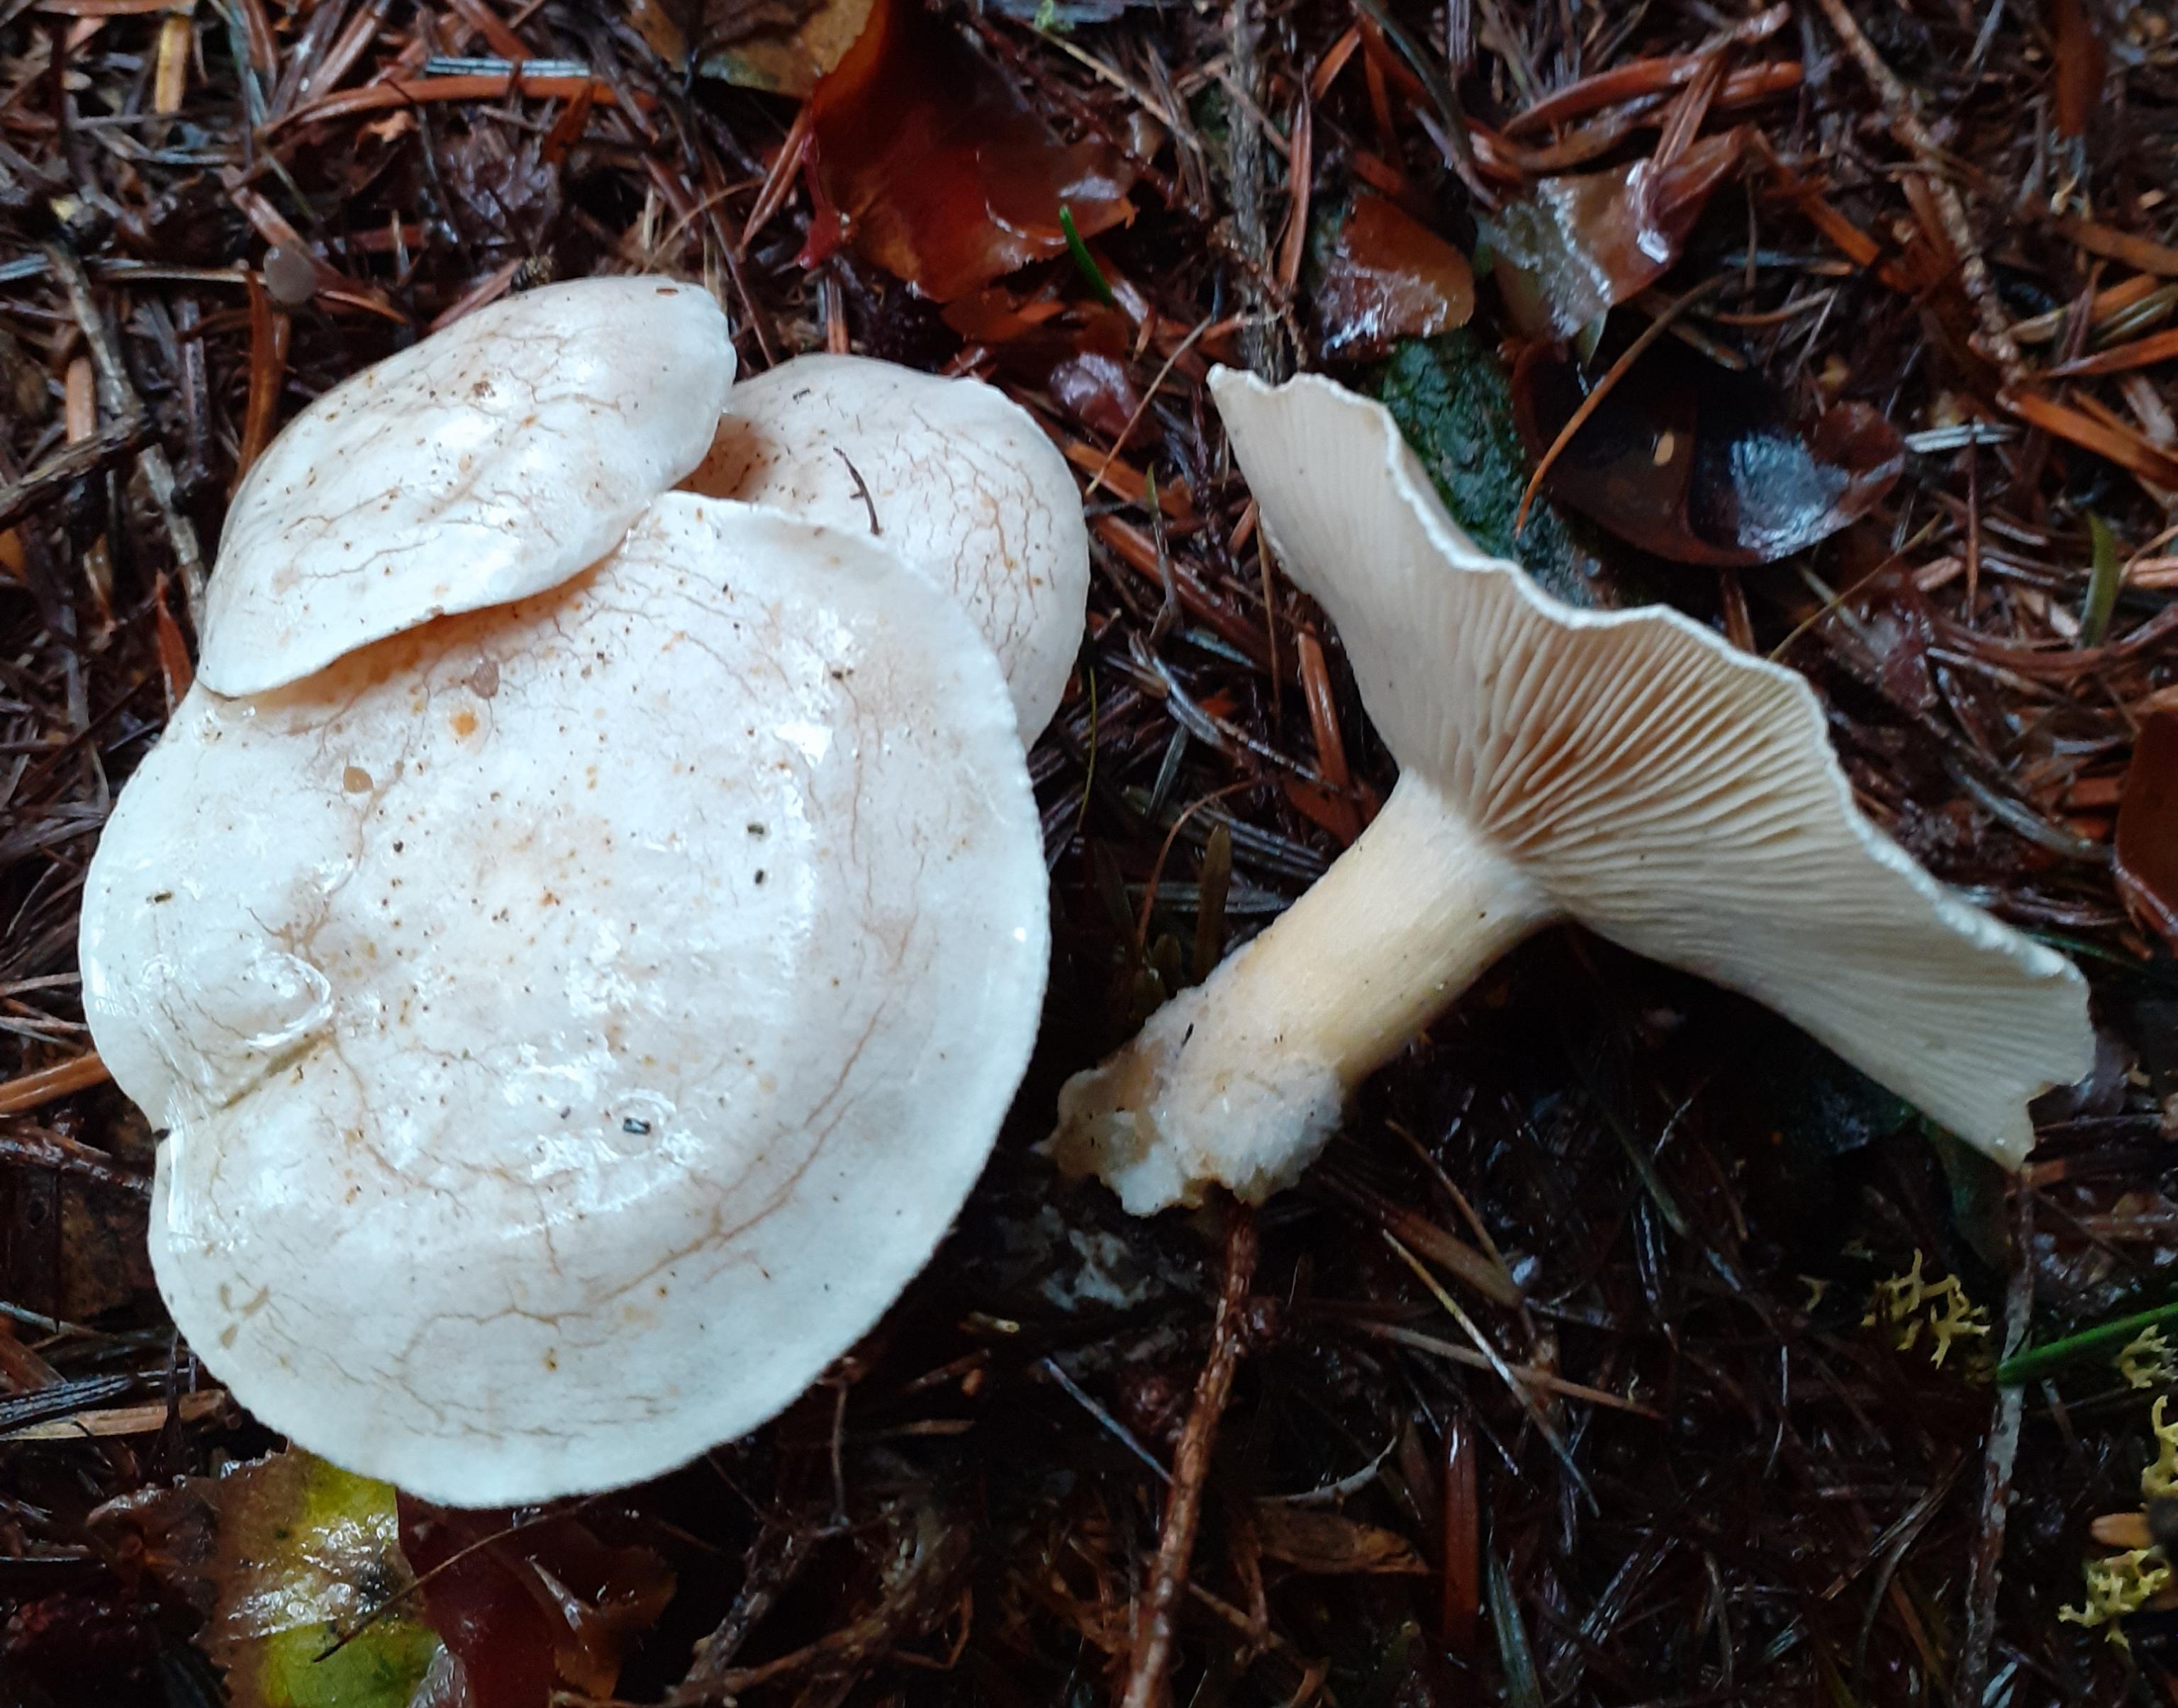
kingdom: Fungi
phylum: Basidiomycota
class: Agaricomycetes
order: Agaricales
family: Tricholomataceae
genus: Clitocybe
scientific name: Clitocybe phyllophila
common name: løv-tragthat
